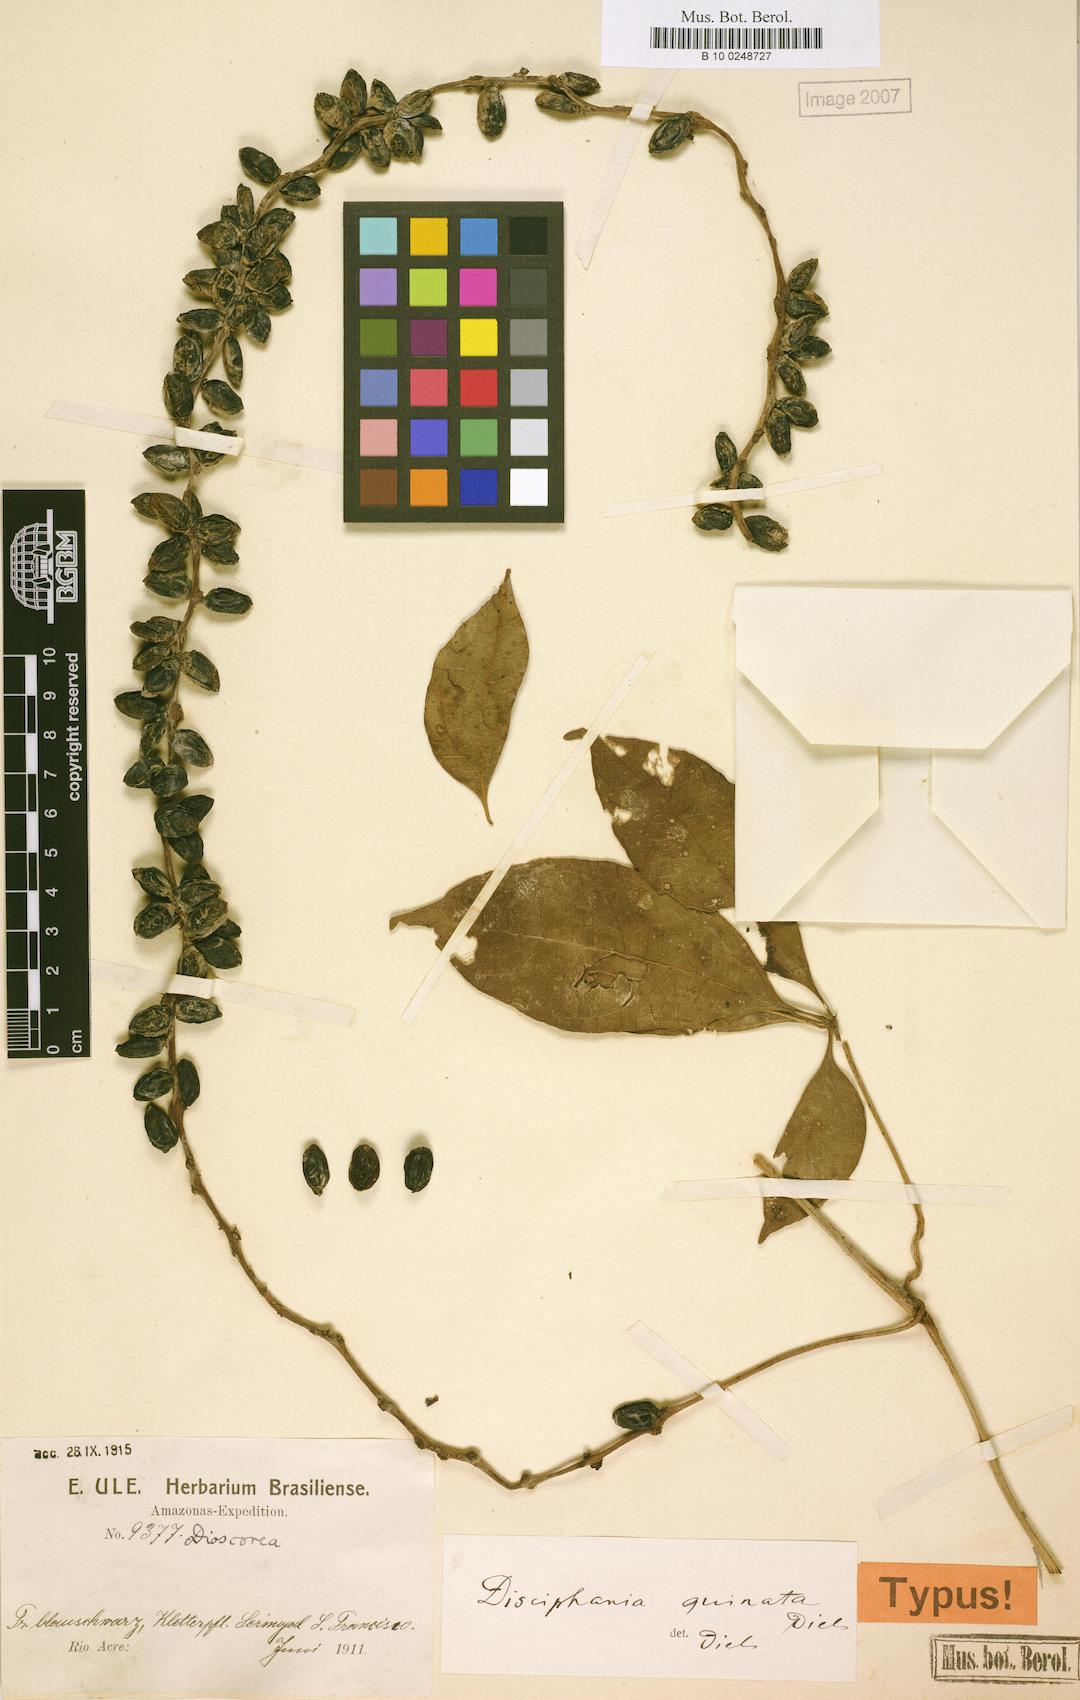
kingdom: Plantae
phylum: Tracheophyta
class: Magnoliopsida
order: Ranunculales
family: Menispermaceae
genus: Disciphania
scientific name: Disciphania
